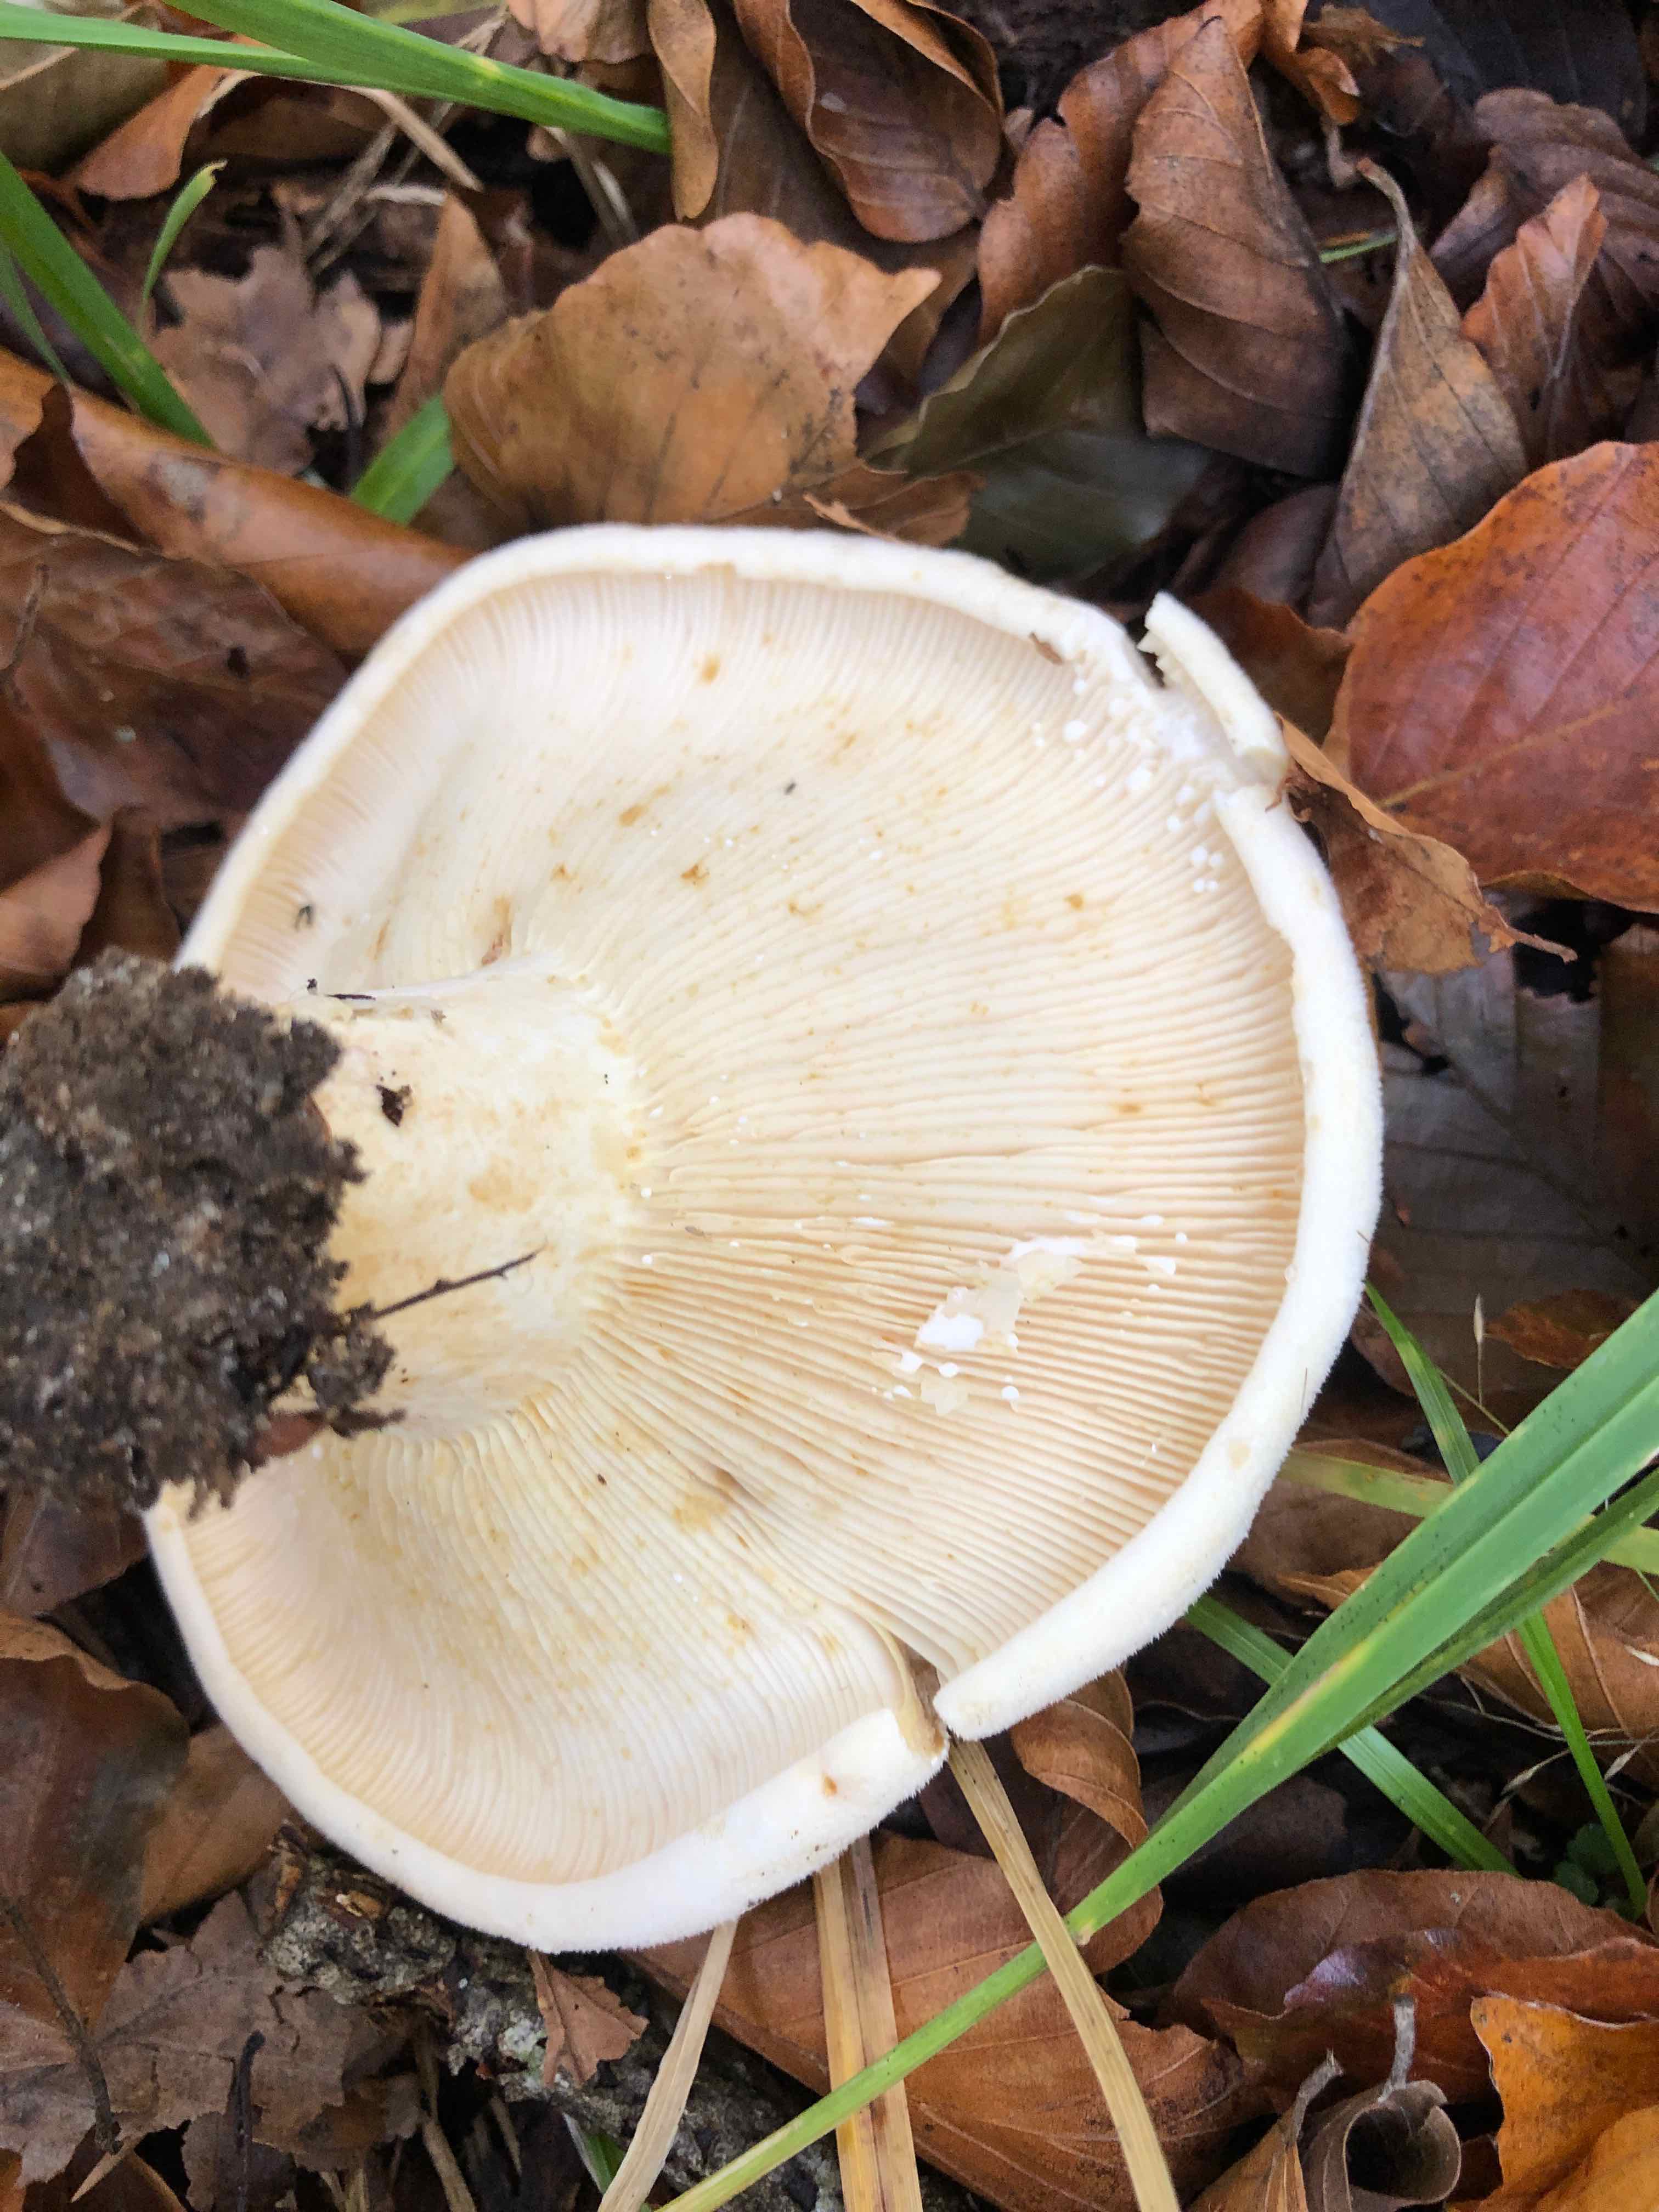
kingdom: Fungi
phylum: Basidiomycota
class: Agaricomycetes
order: Russulales
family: Russulaceae
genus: Lactifluus
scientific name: Lactifluus vellereus
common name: hvidfiltet mælkehat
